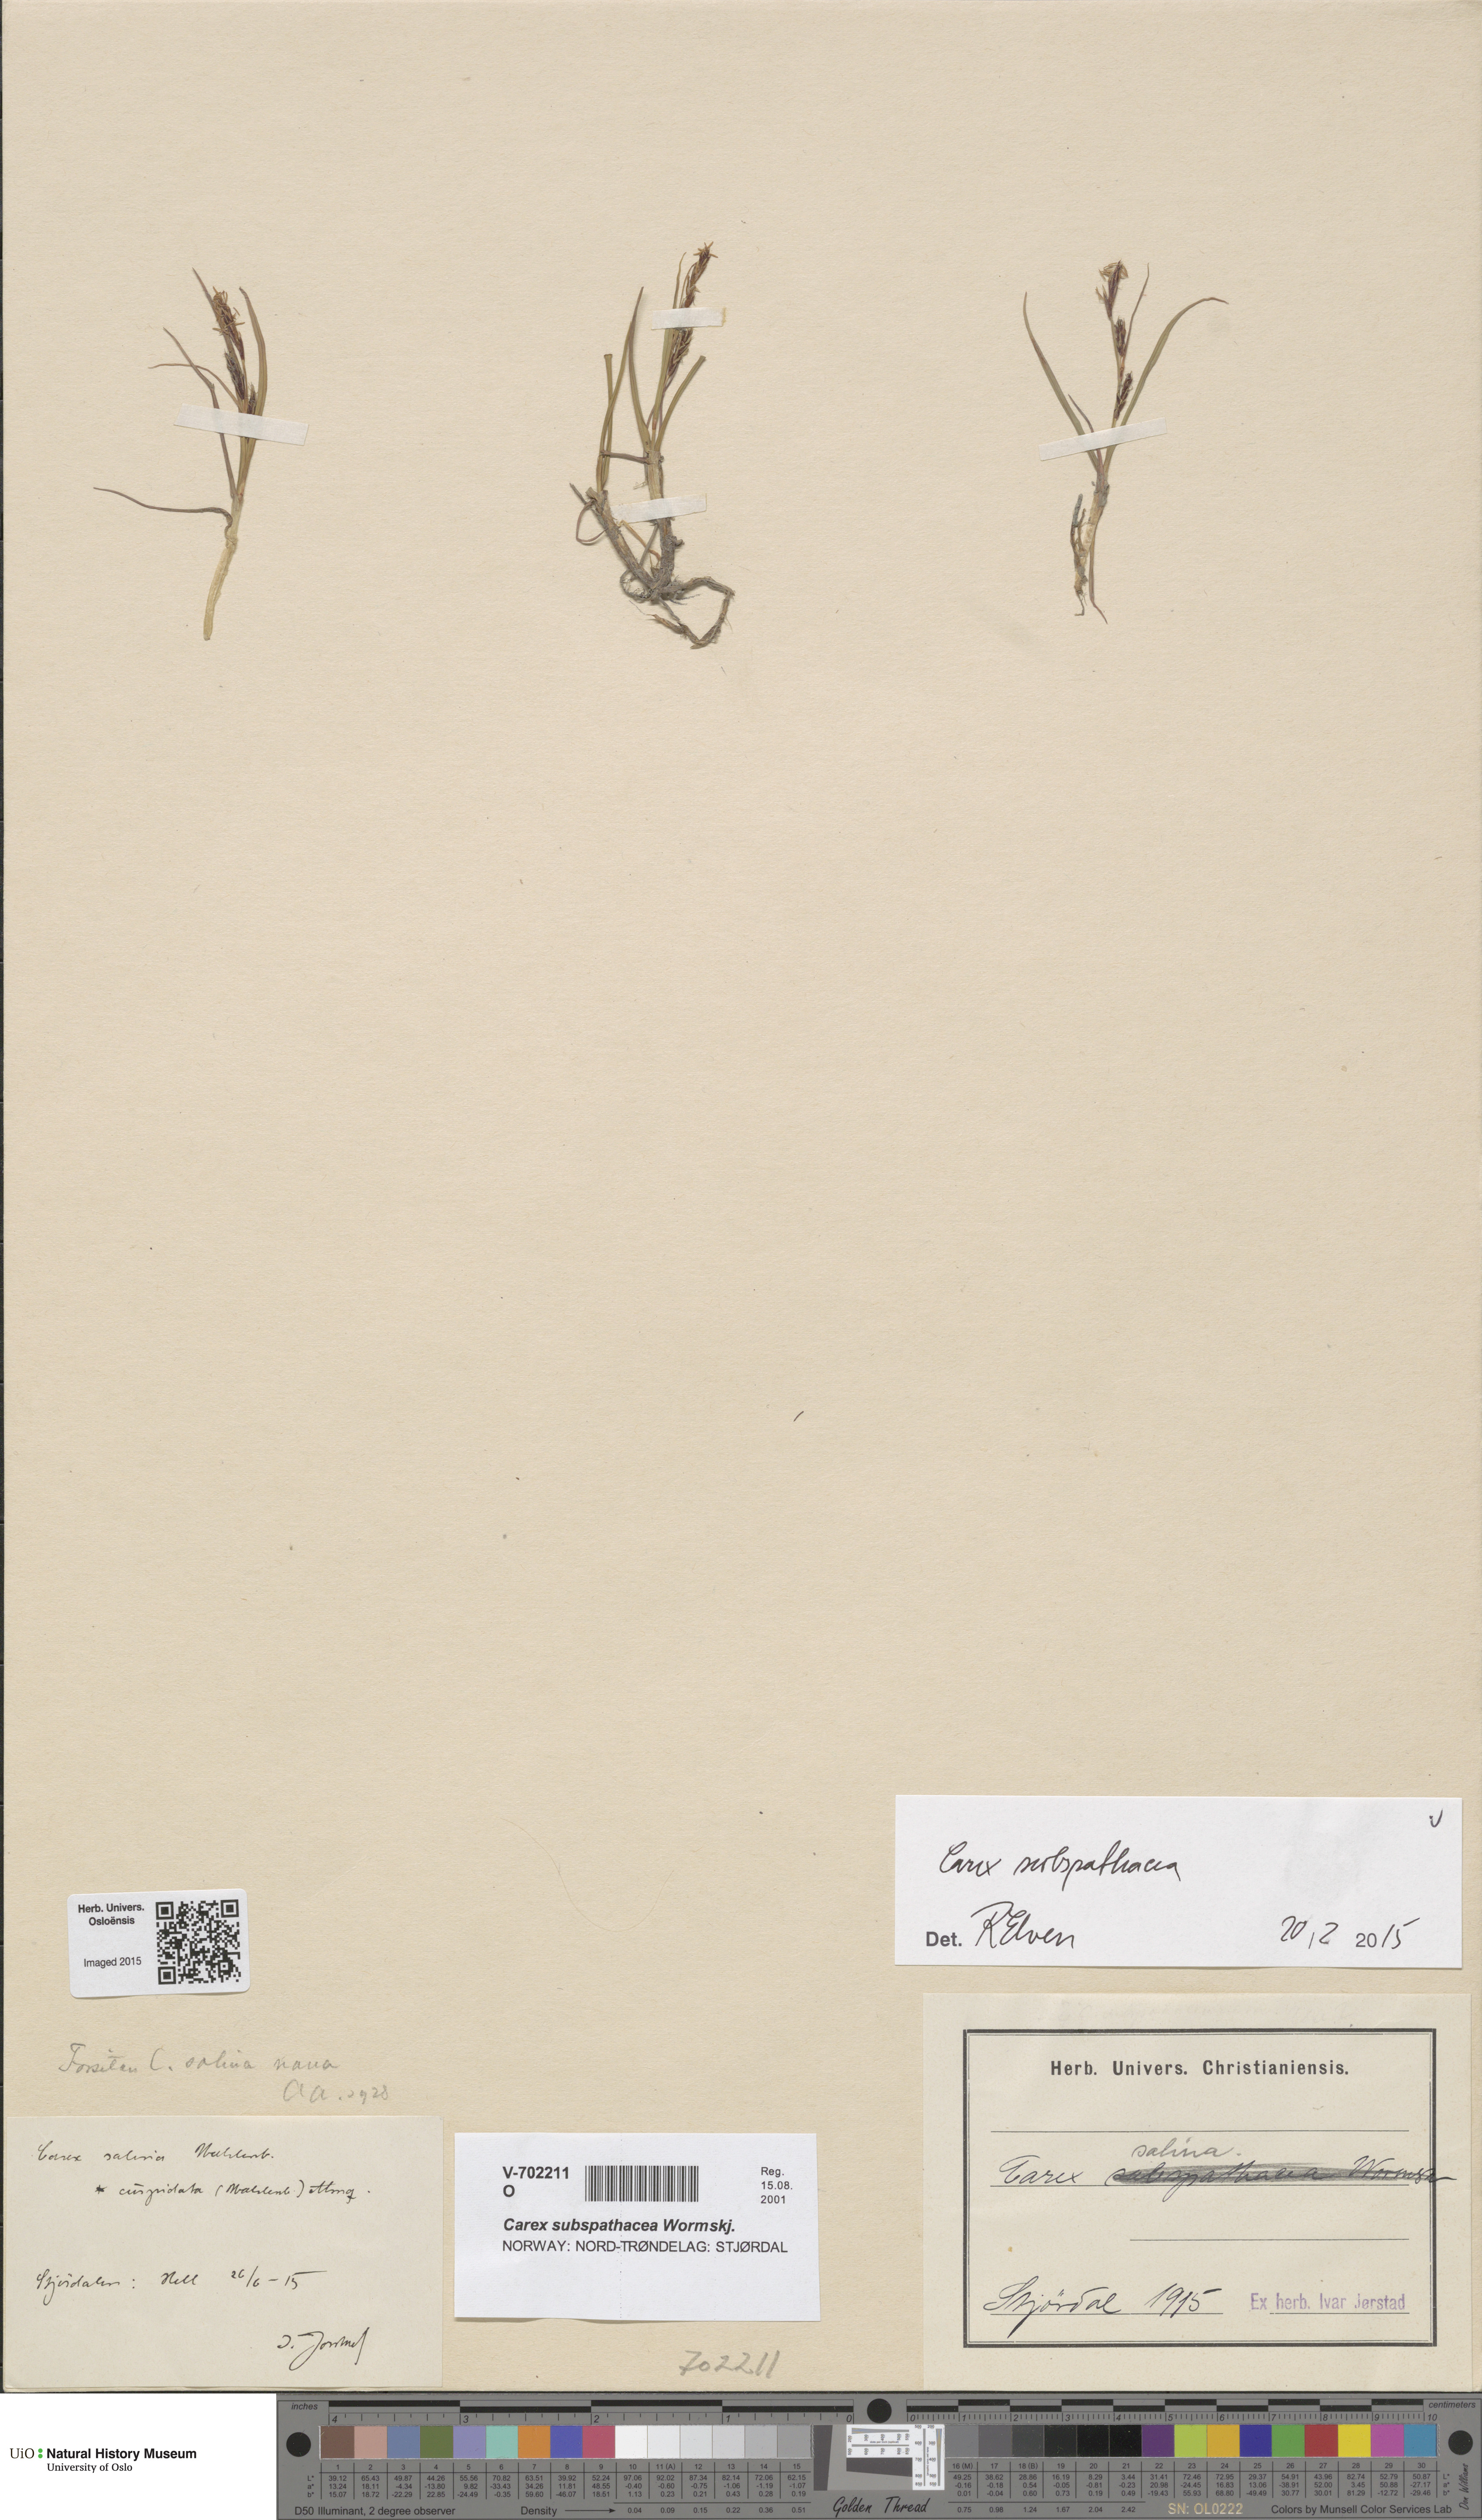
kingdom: Plantae
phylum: Tracheophyta
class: Liliopsida
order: Poales
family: Cyperaceae
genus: Carex
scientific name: Carex subspathacea
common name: Hoppner's sedge
